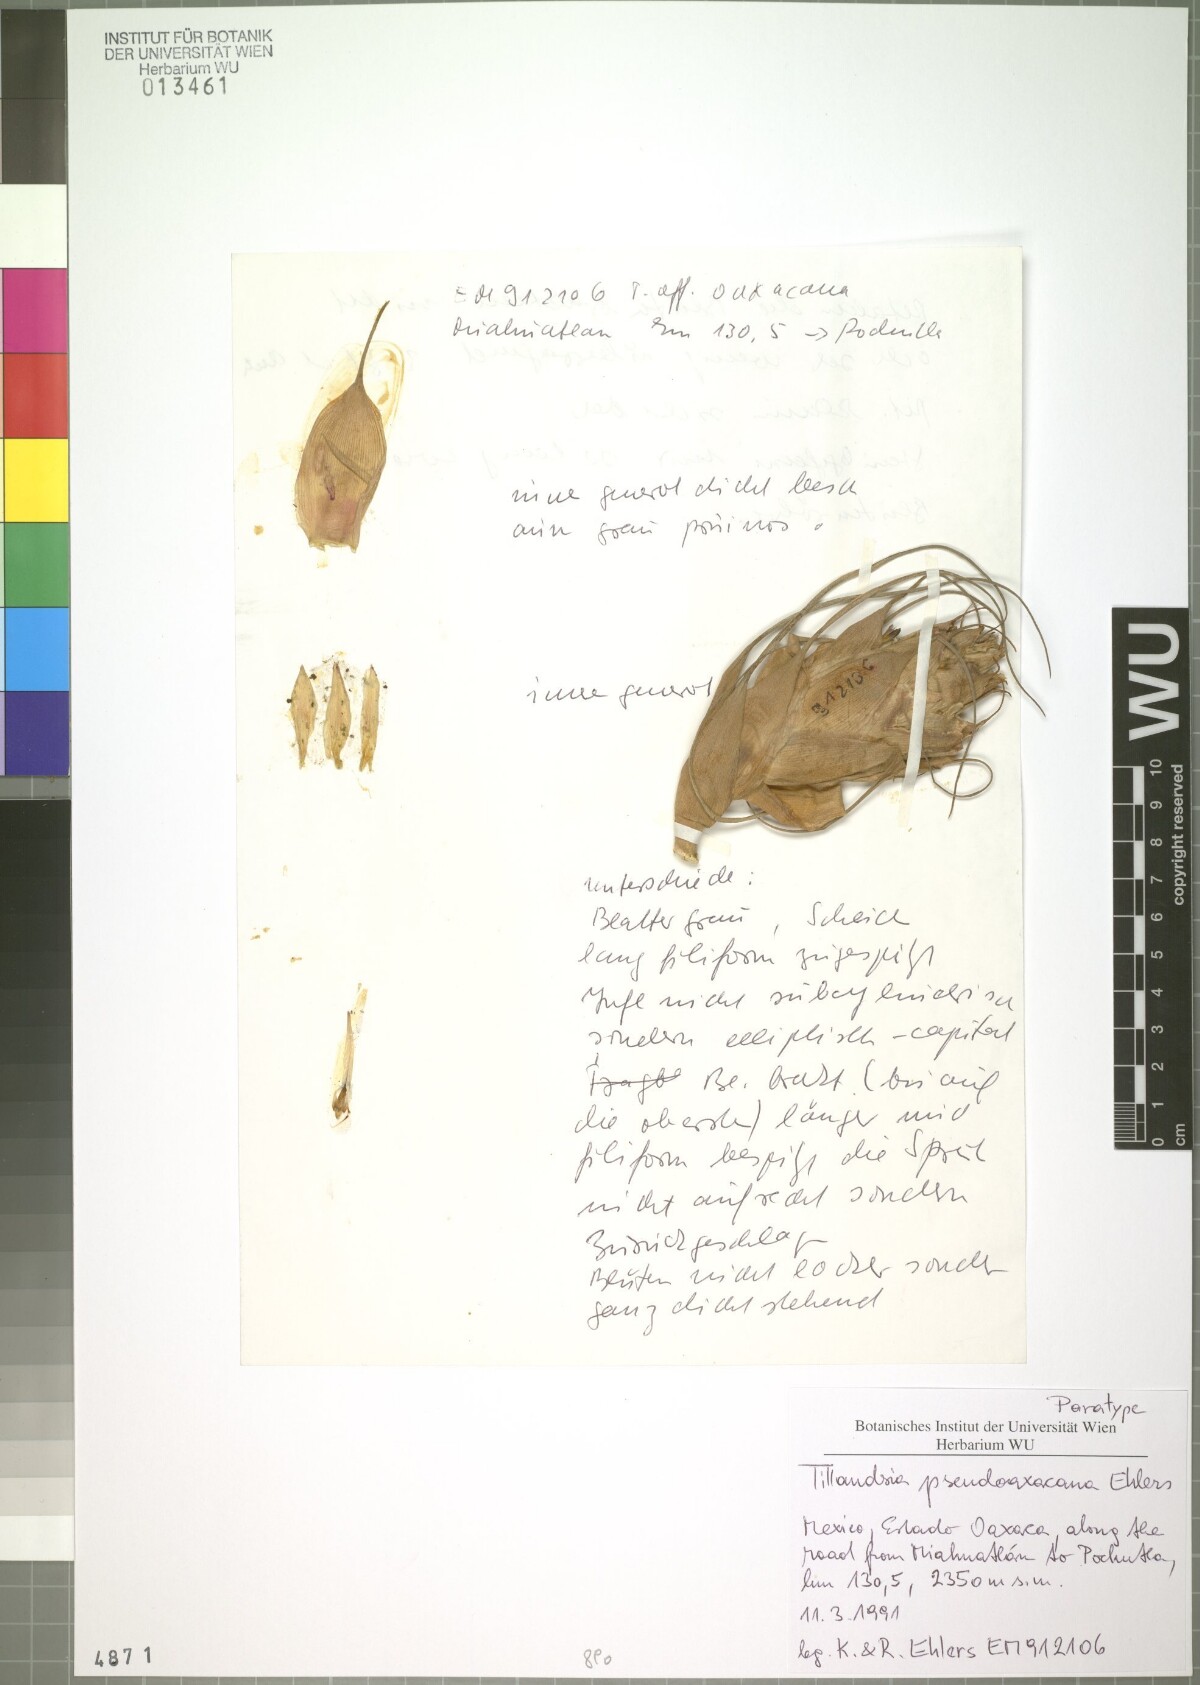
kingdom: Plantae
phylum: Tracheophyta
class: Liliopsida
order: Poales
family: Bromeliaceae
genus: Tillandsia
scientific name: Tillandsia pseudooaxacana
